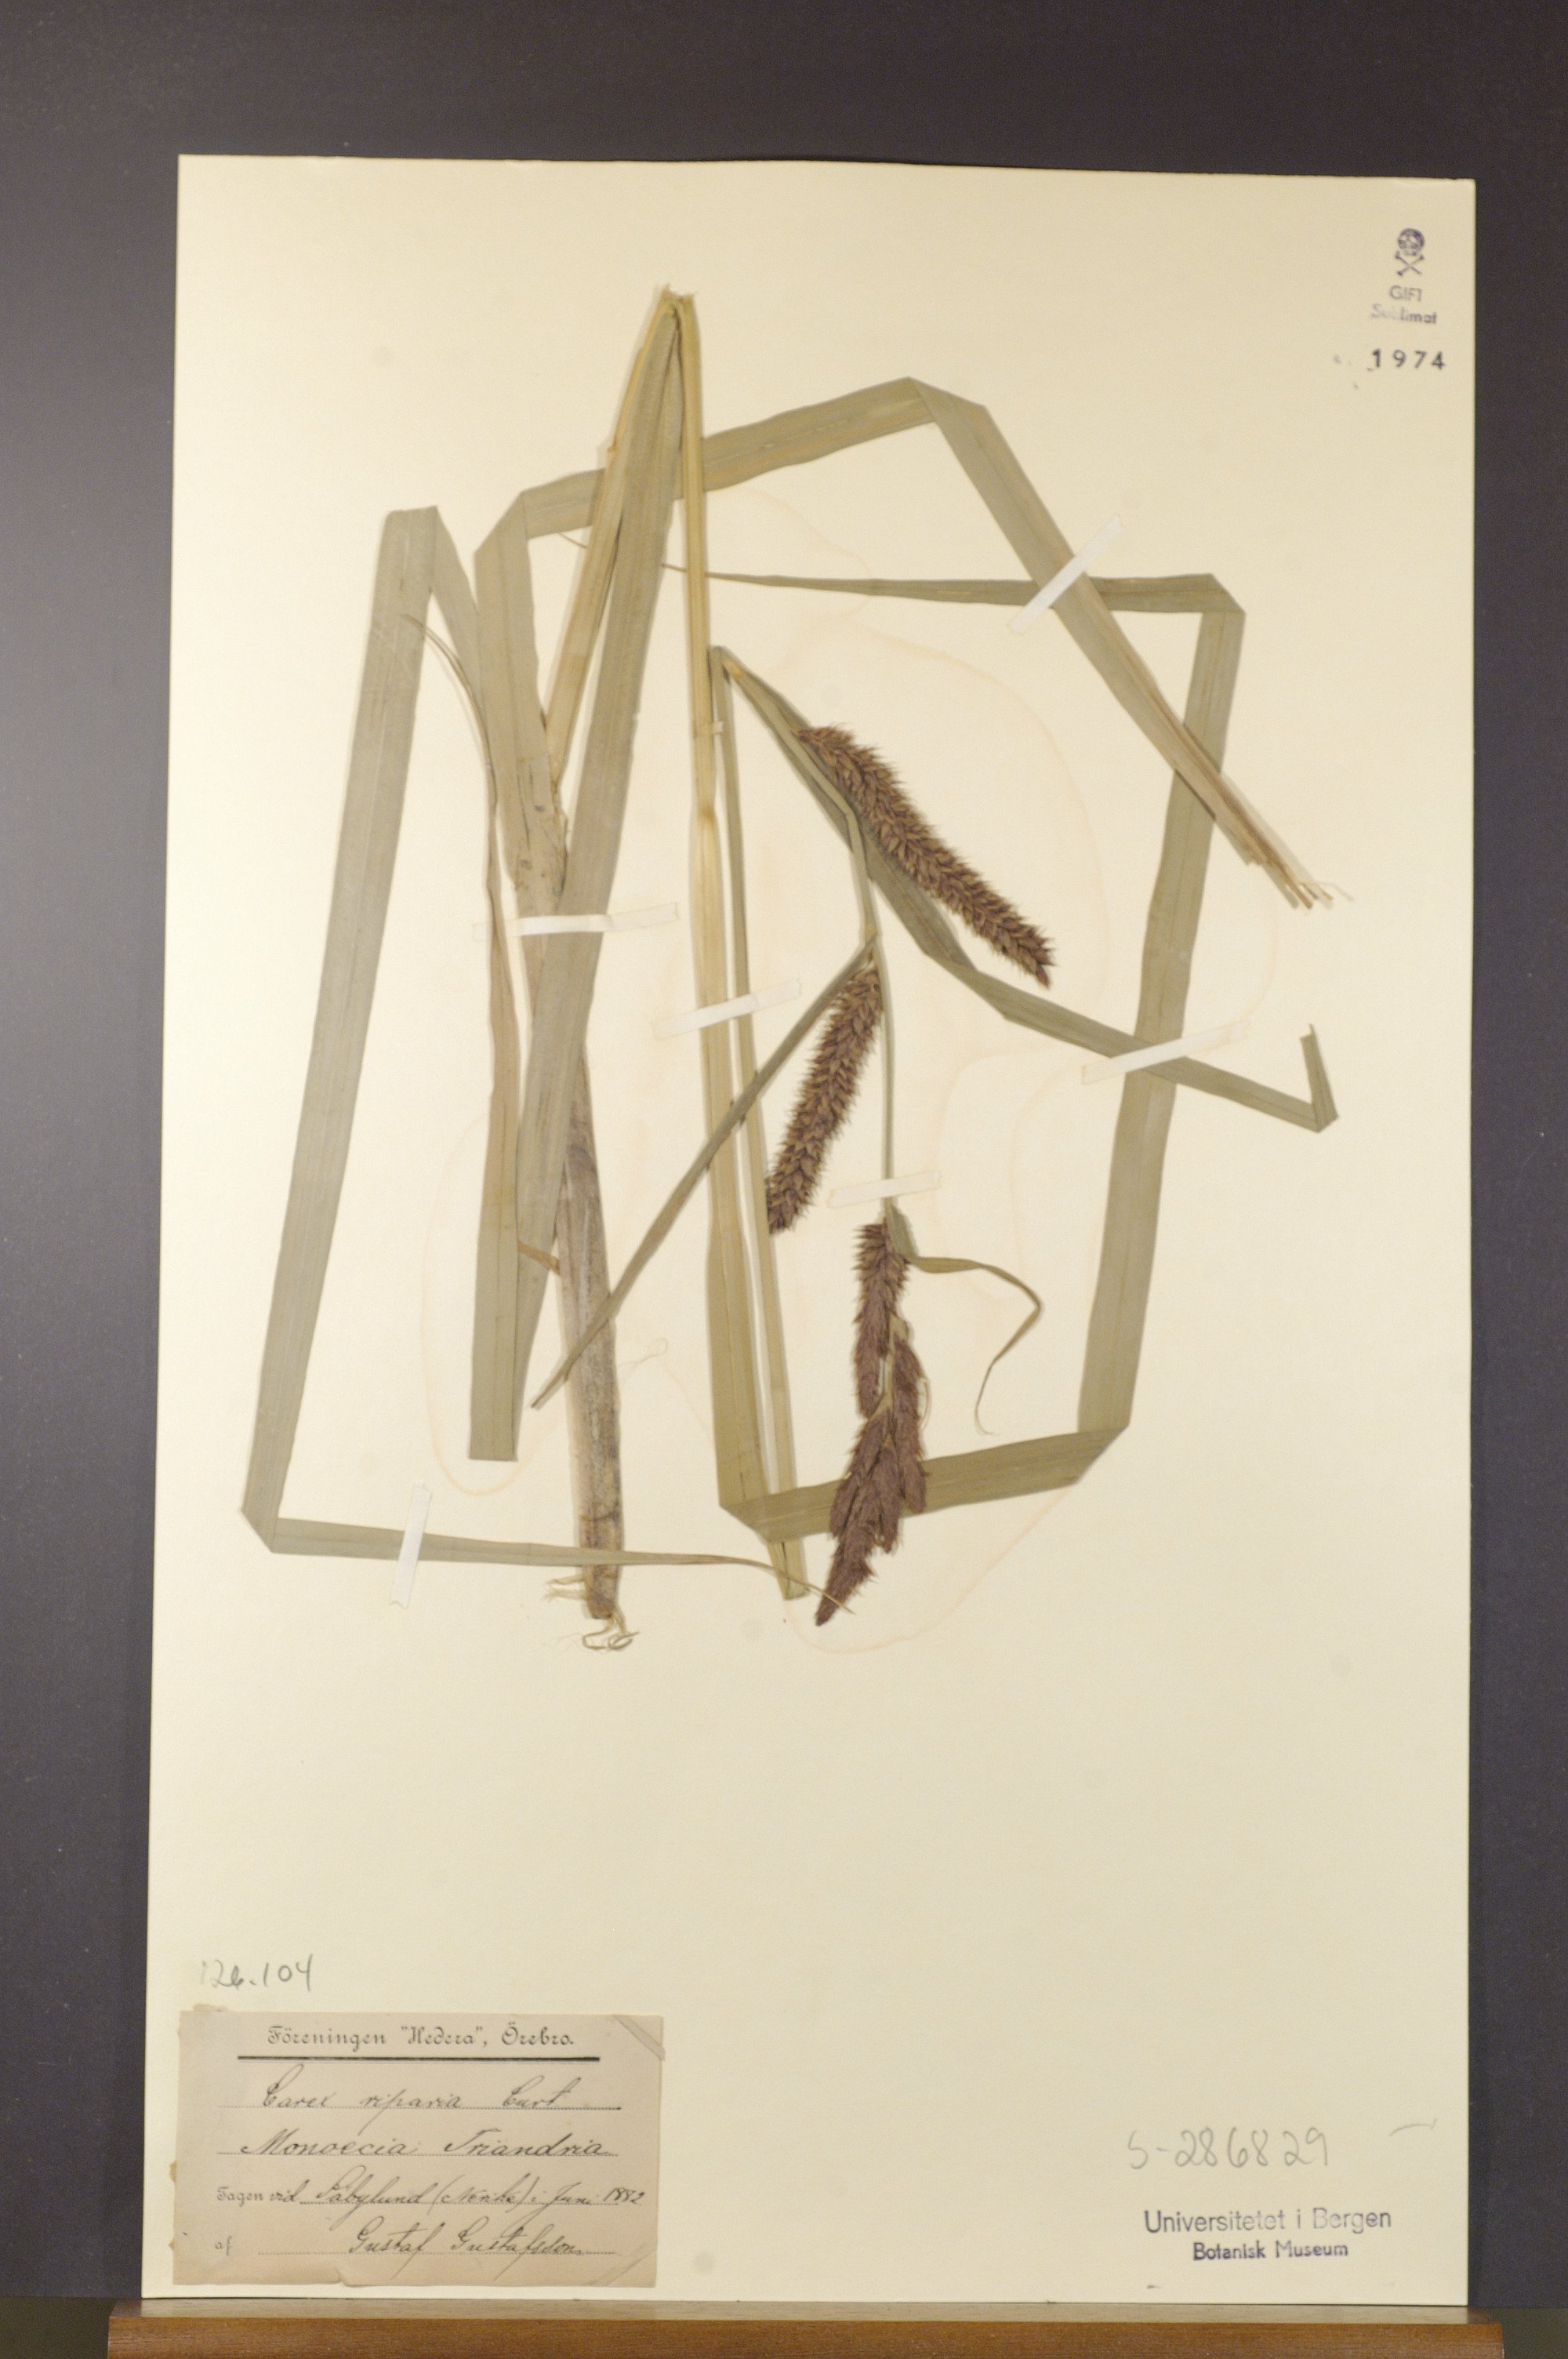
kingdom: Plantae
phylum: Tracheophyta
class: Liliopsida
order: Poales
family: Cyperaceae
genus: Carex
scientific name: Carex riparia
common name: Greater pond-sedge
